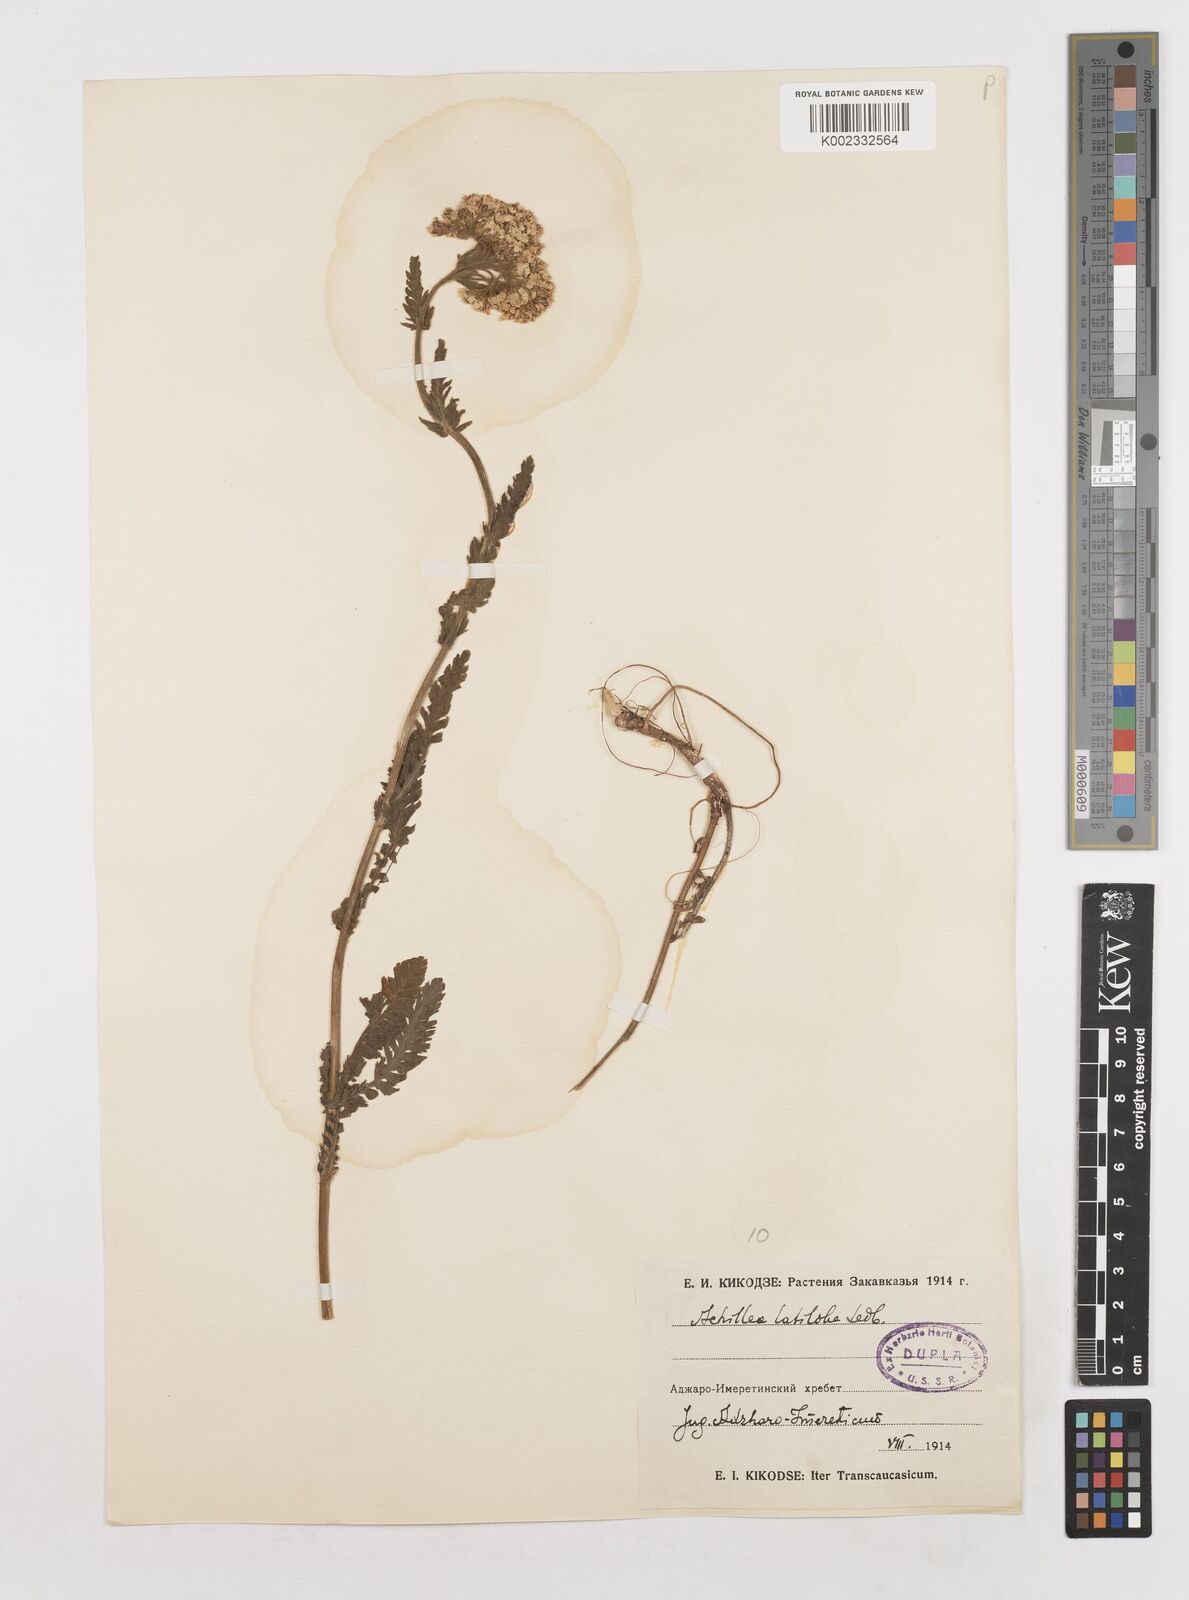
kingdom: Plantae
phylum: Tracheophyta
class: Magnoliopsida
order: Asterales
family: Asteraceae
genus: Achillea
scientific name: Achillea latiloba
